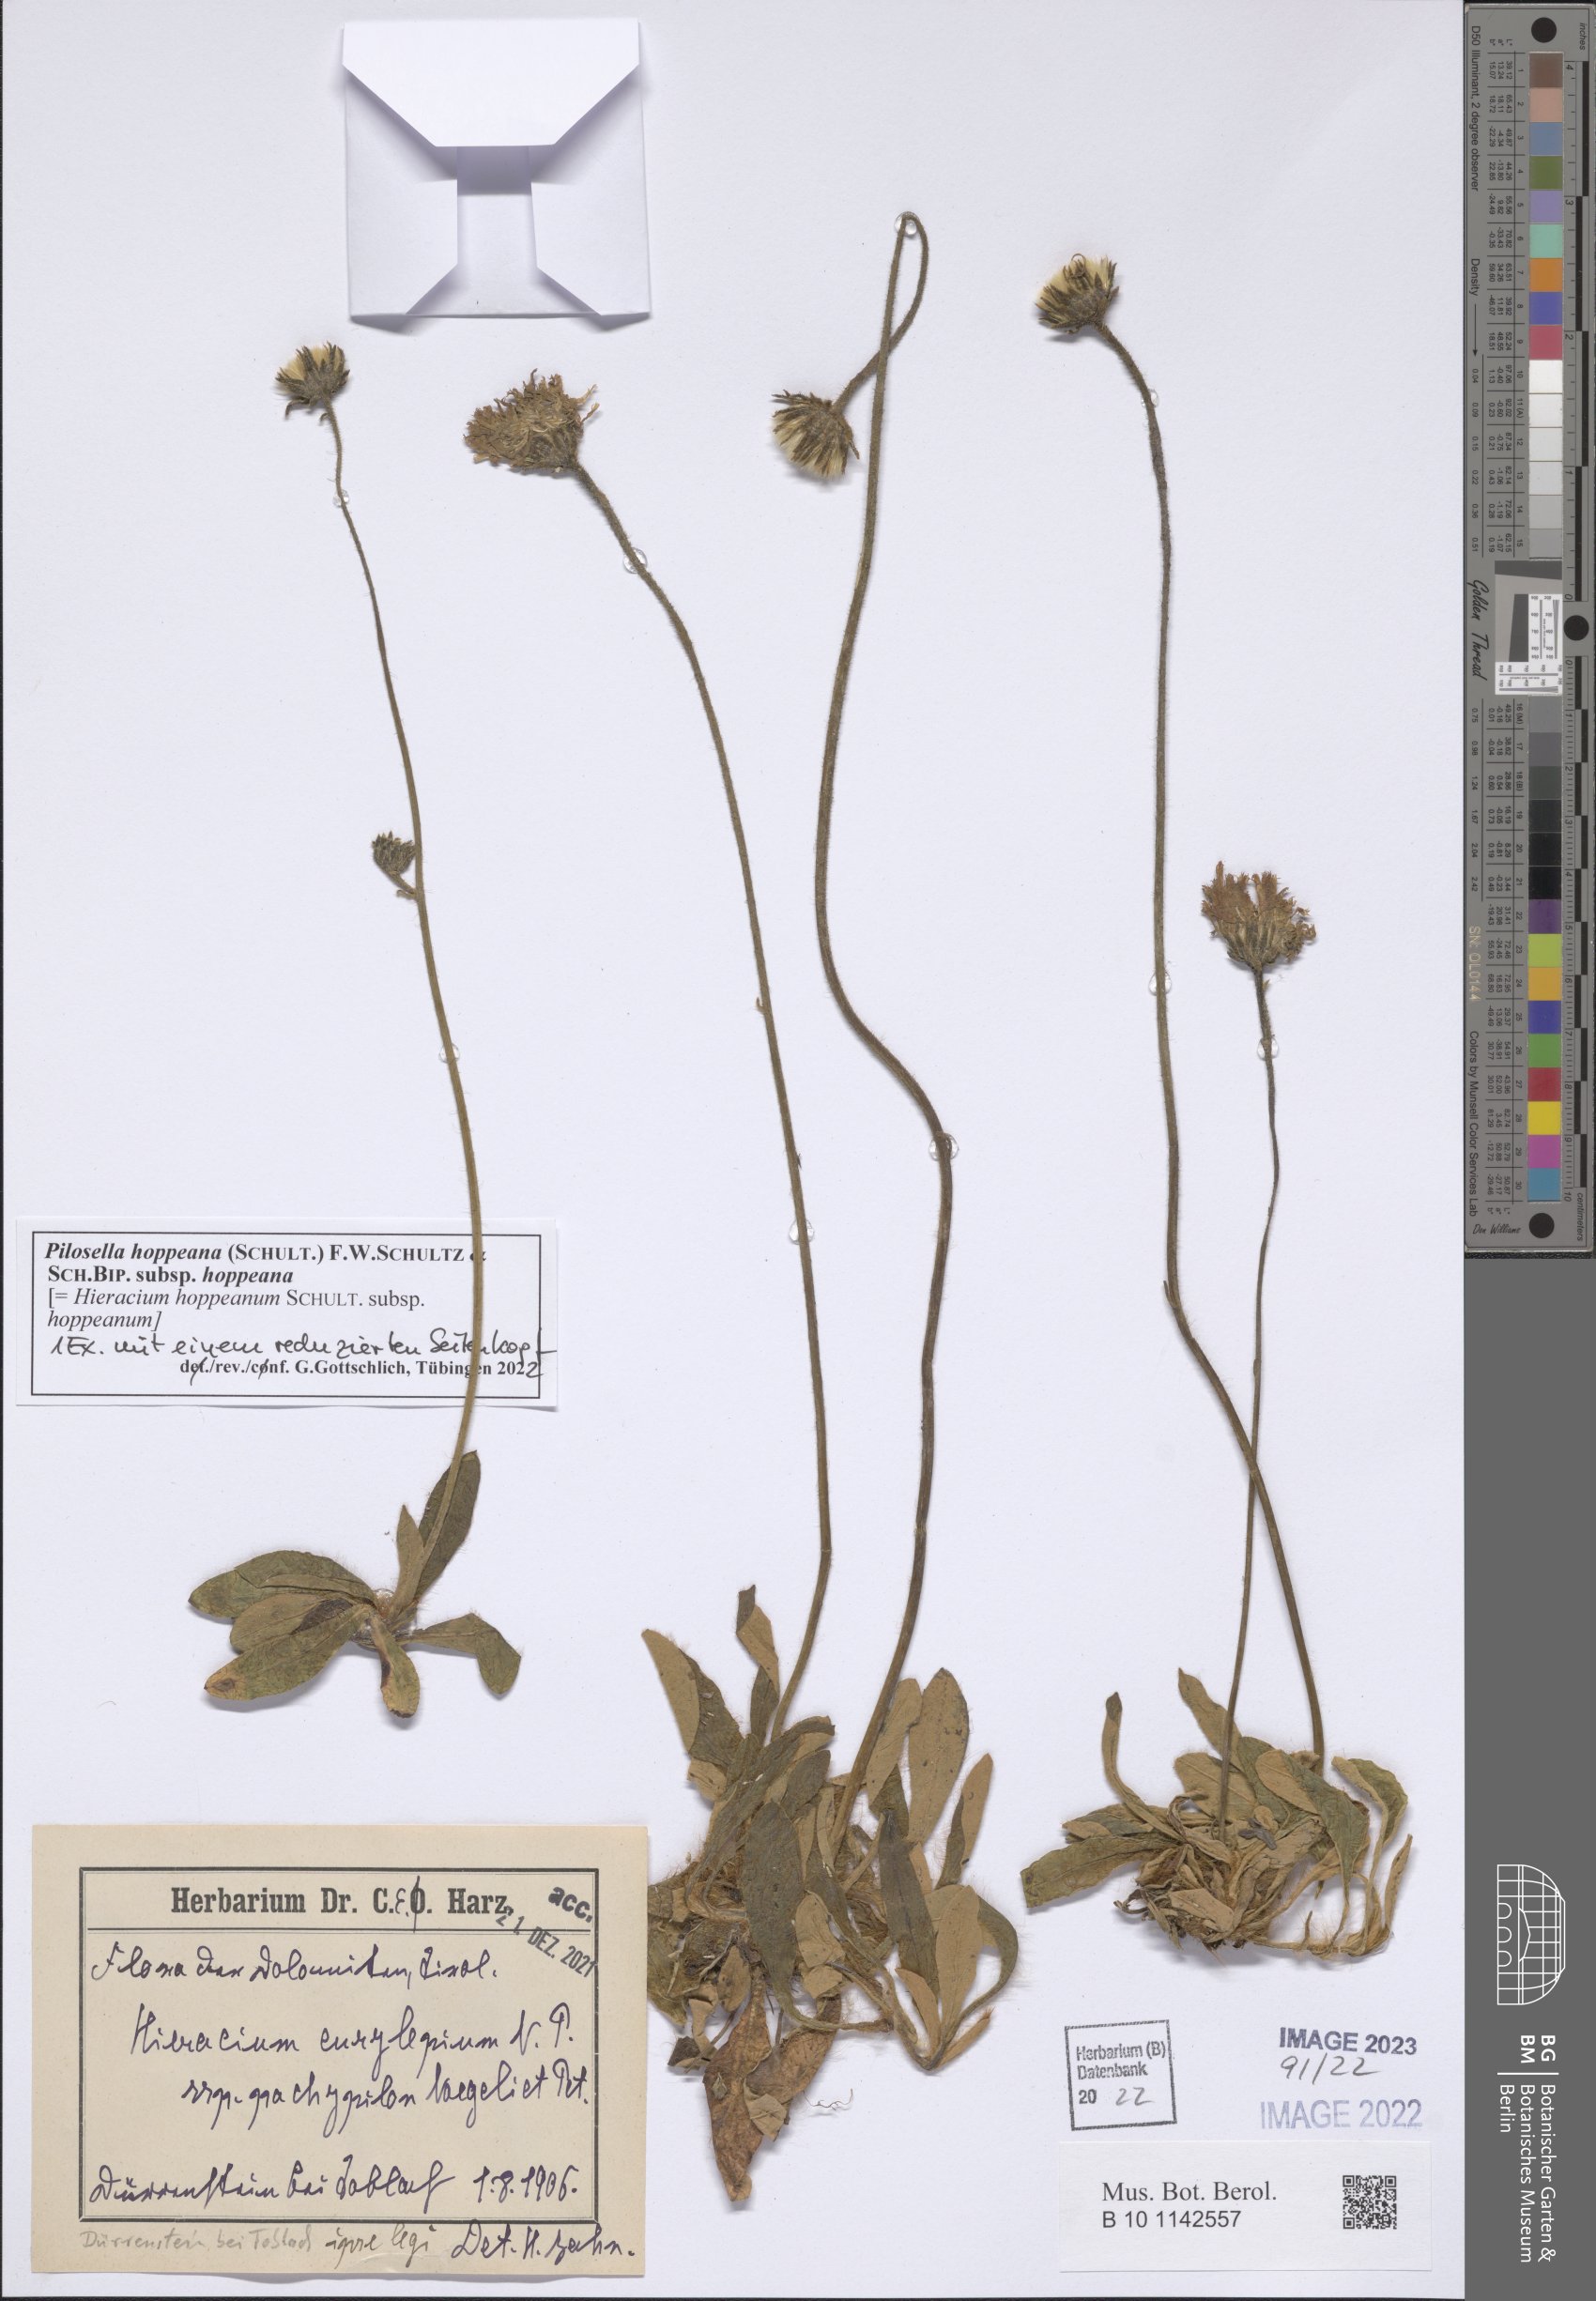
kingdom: Plantae
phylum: Tracheophyta
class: Magnoliopsida
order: Asterales
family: Asteraceae
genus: Pilosella
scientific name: Pilosella hoppeana
